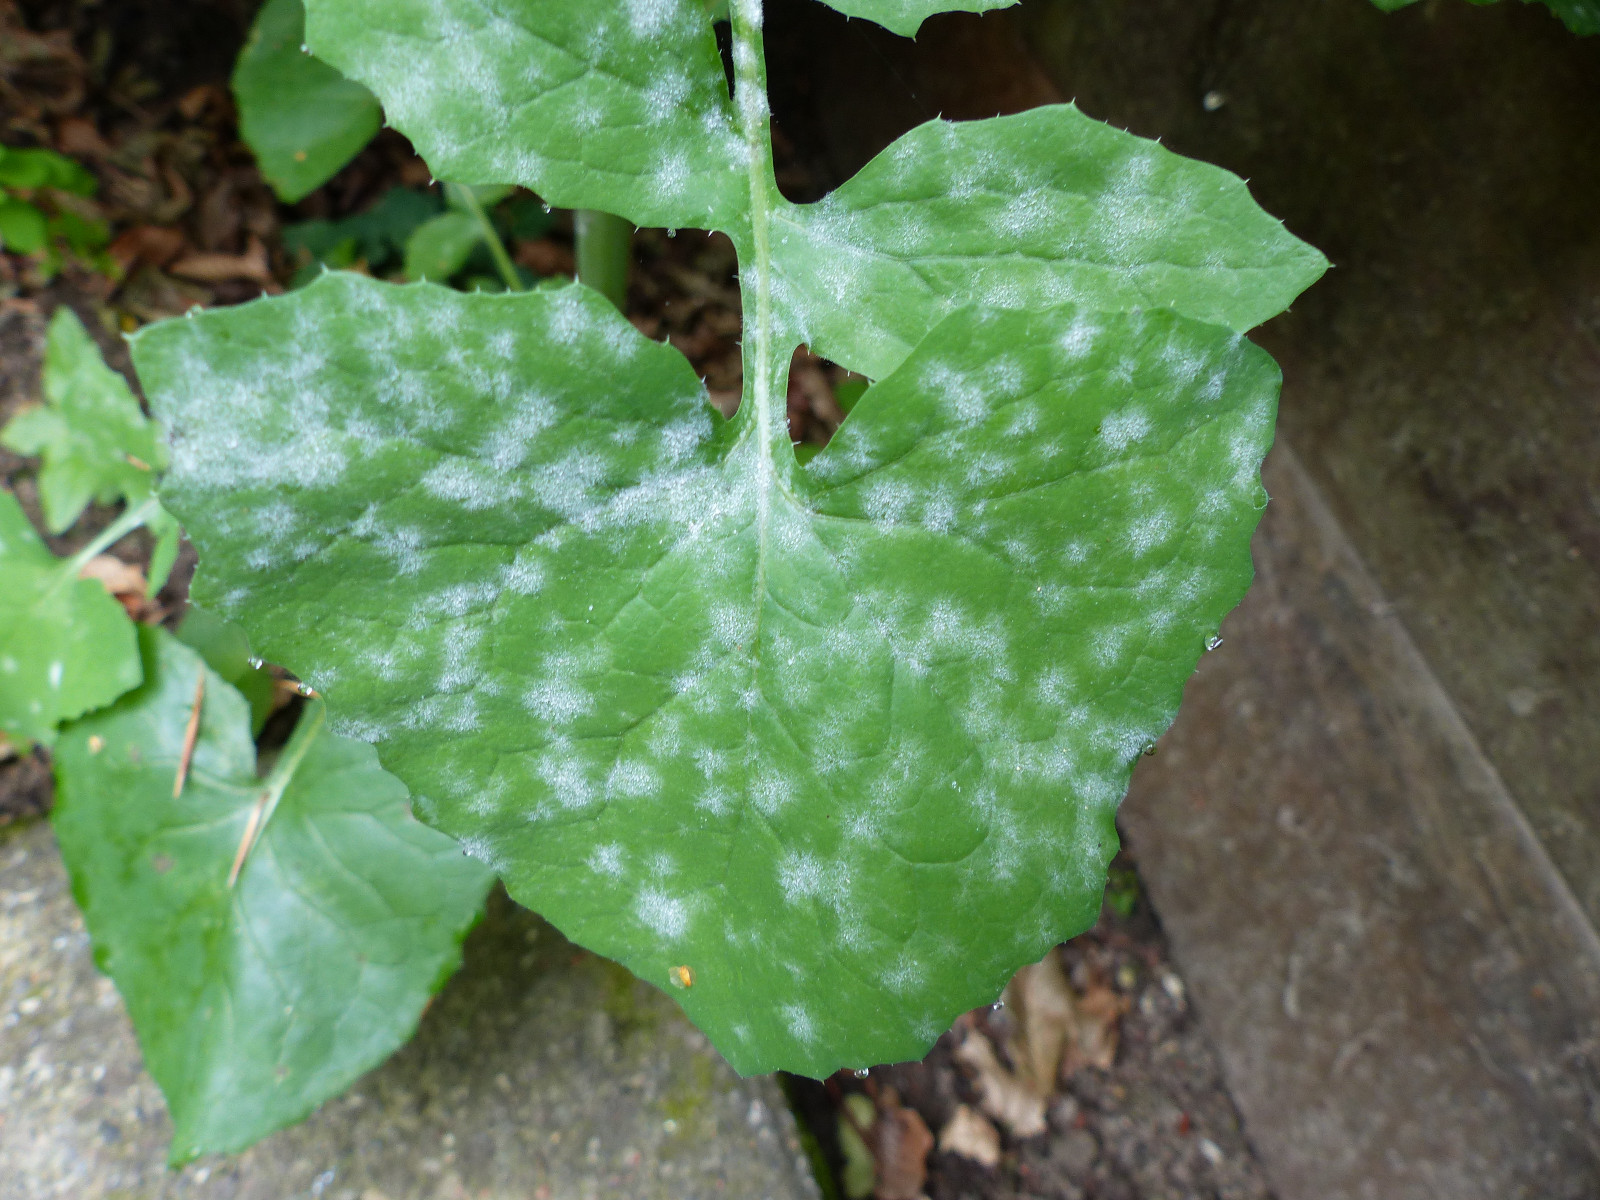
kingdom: Fungi
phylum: Ascomycota
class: Leotiomycetes
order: Helotiales
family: Erysiphaceae
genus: Golovinomyces
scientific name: Golovinomyces sonchicola
